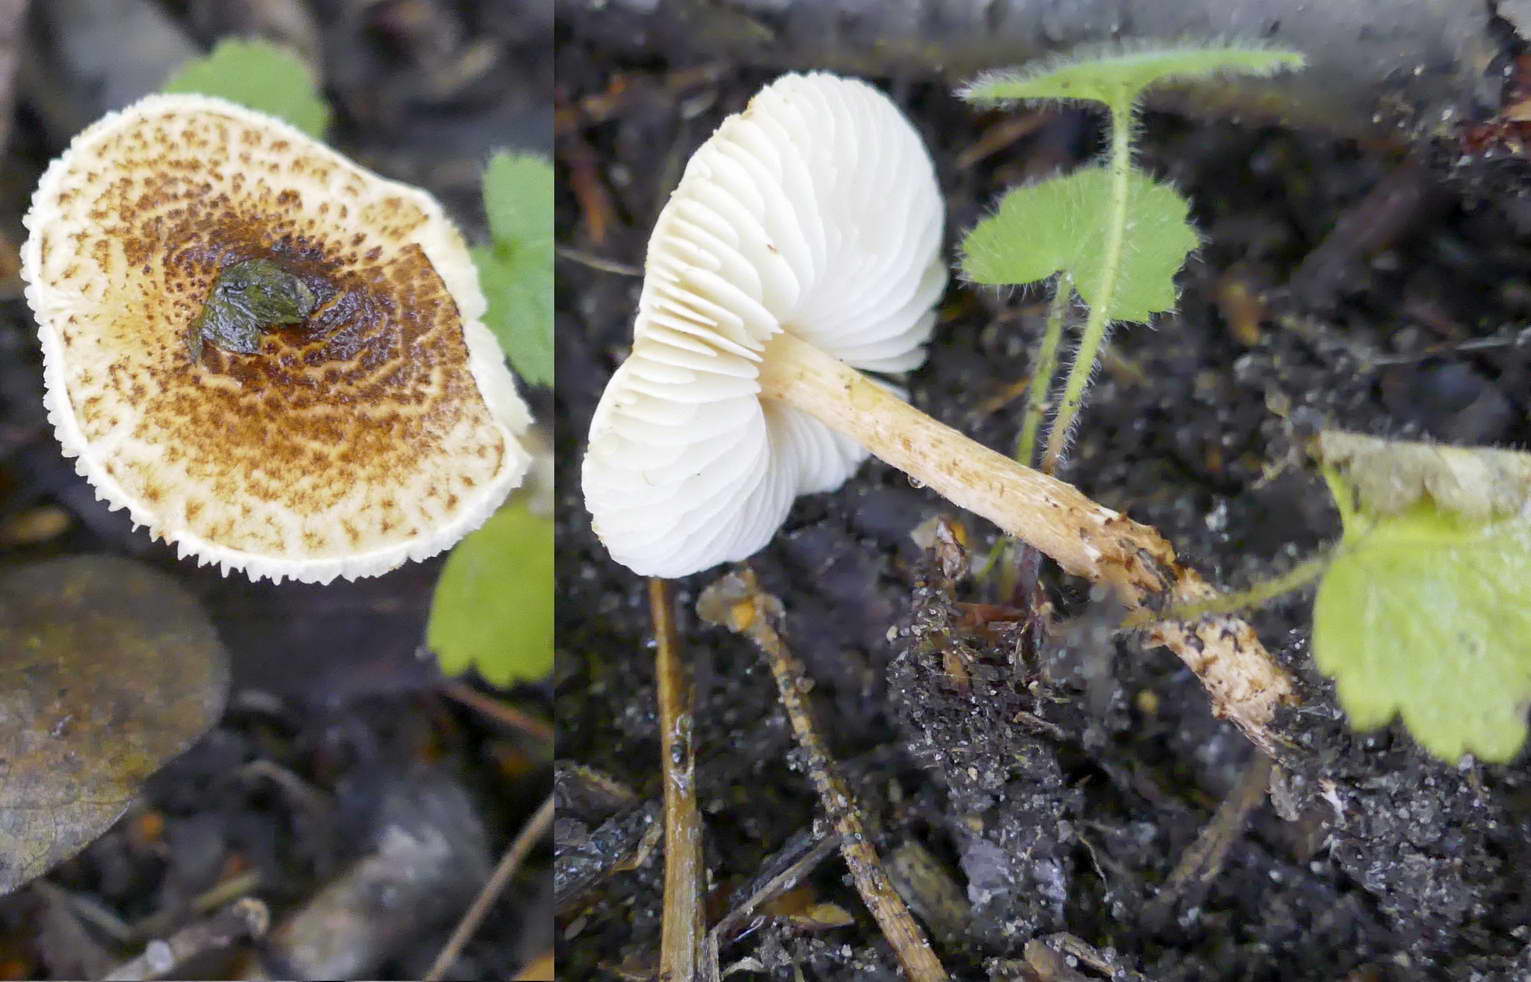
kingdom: Fungi
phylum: Basidiomycota
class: Agaricomycetes
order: Agaricales
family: Agaricaceae
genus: Lepiota
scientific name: Lepiota castanea
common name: kastaniebrun parasolhat
